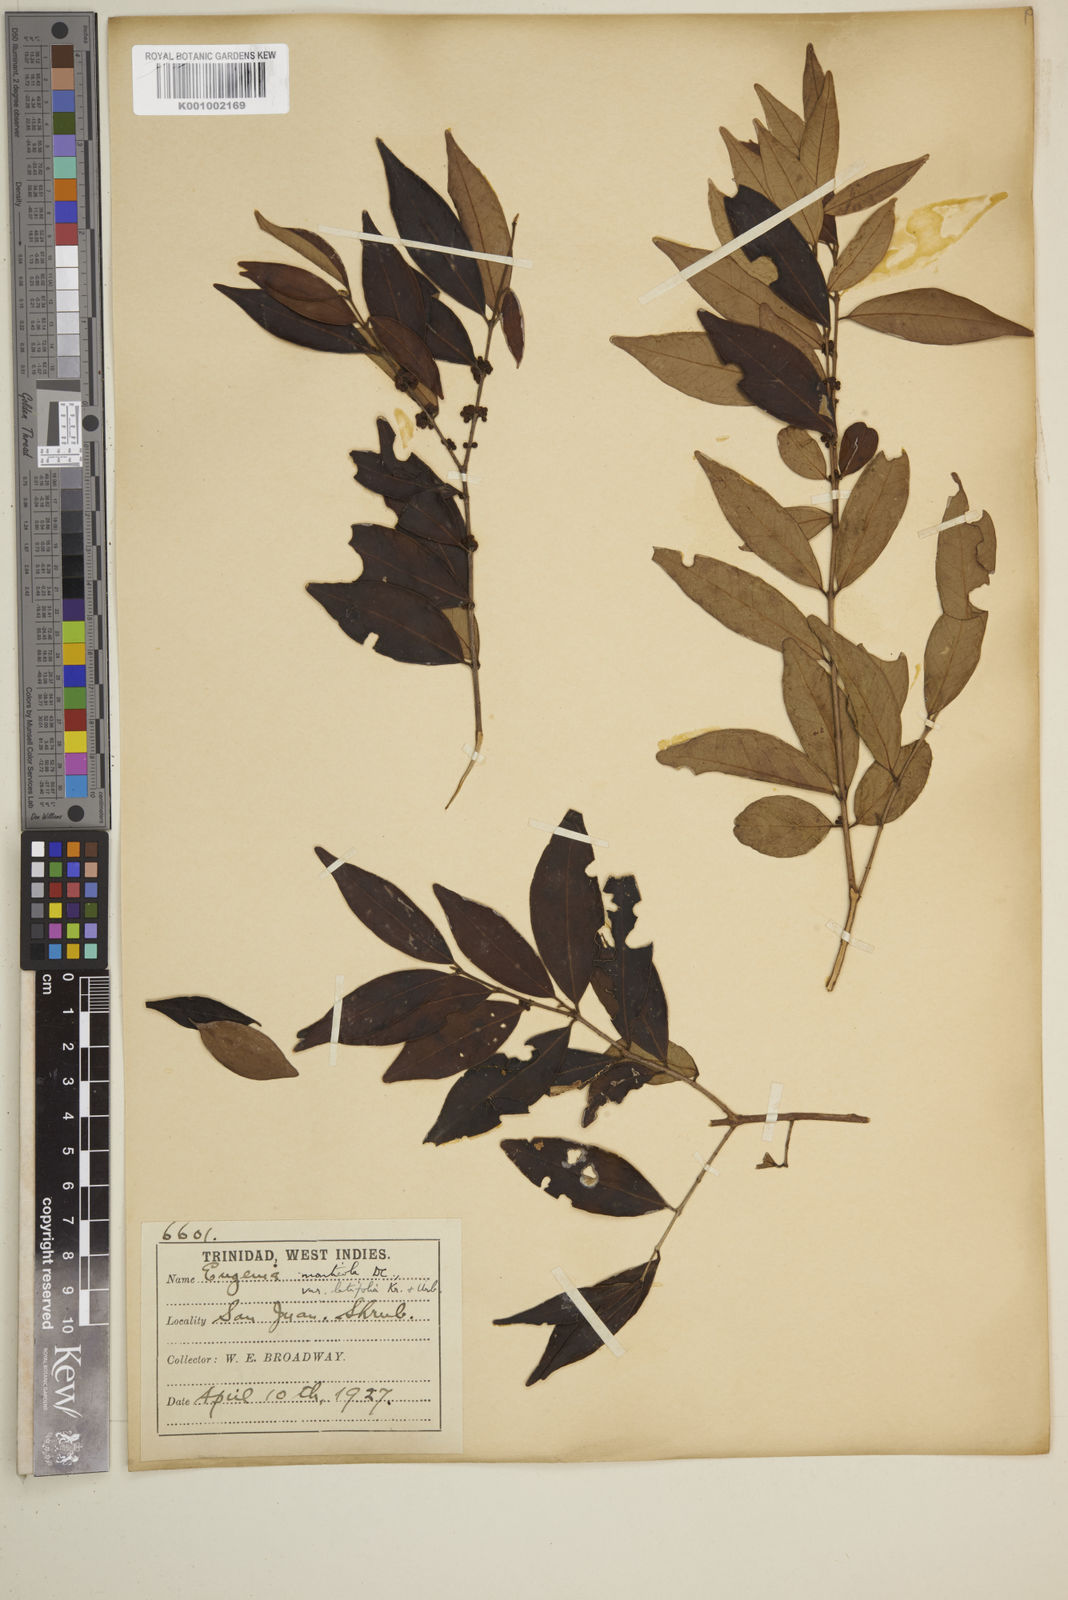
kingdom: Plantae
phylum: Tracheophyta
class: Magnoliopsida
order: Myrtales
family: Myrtaceae
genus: Eugenia
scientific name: Eugenia monticola
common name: Birds berry
